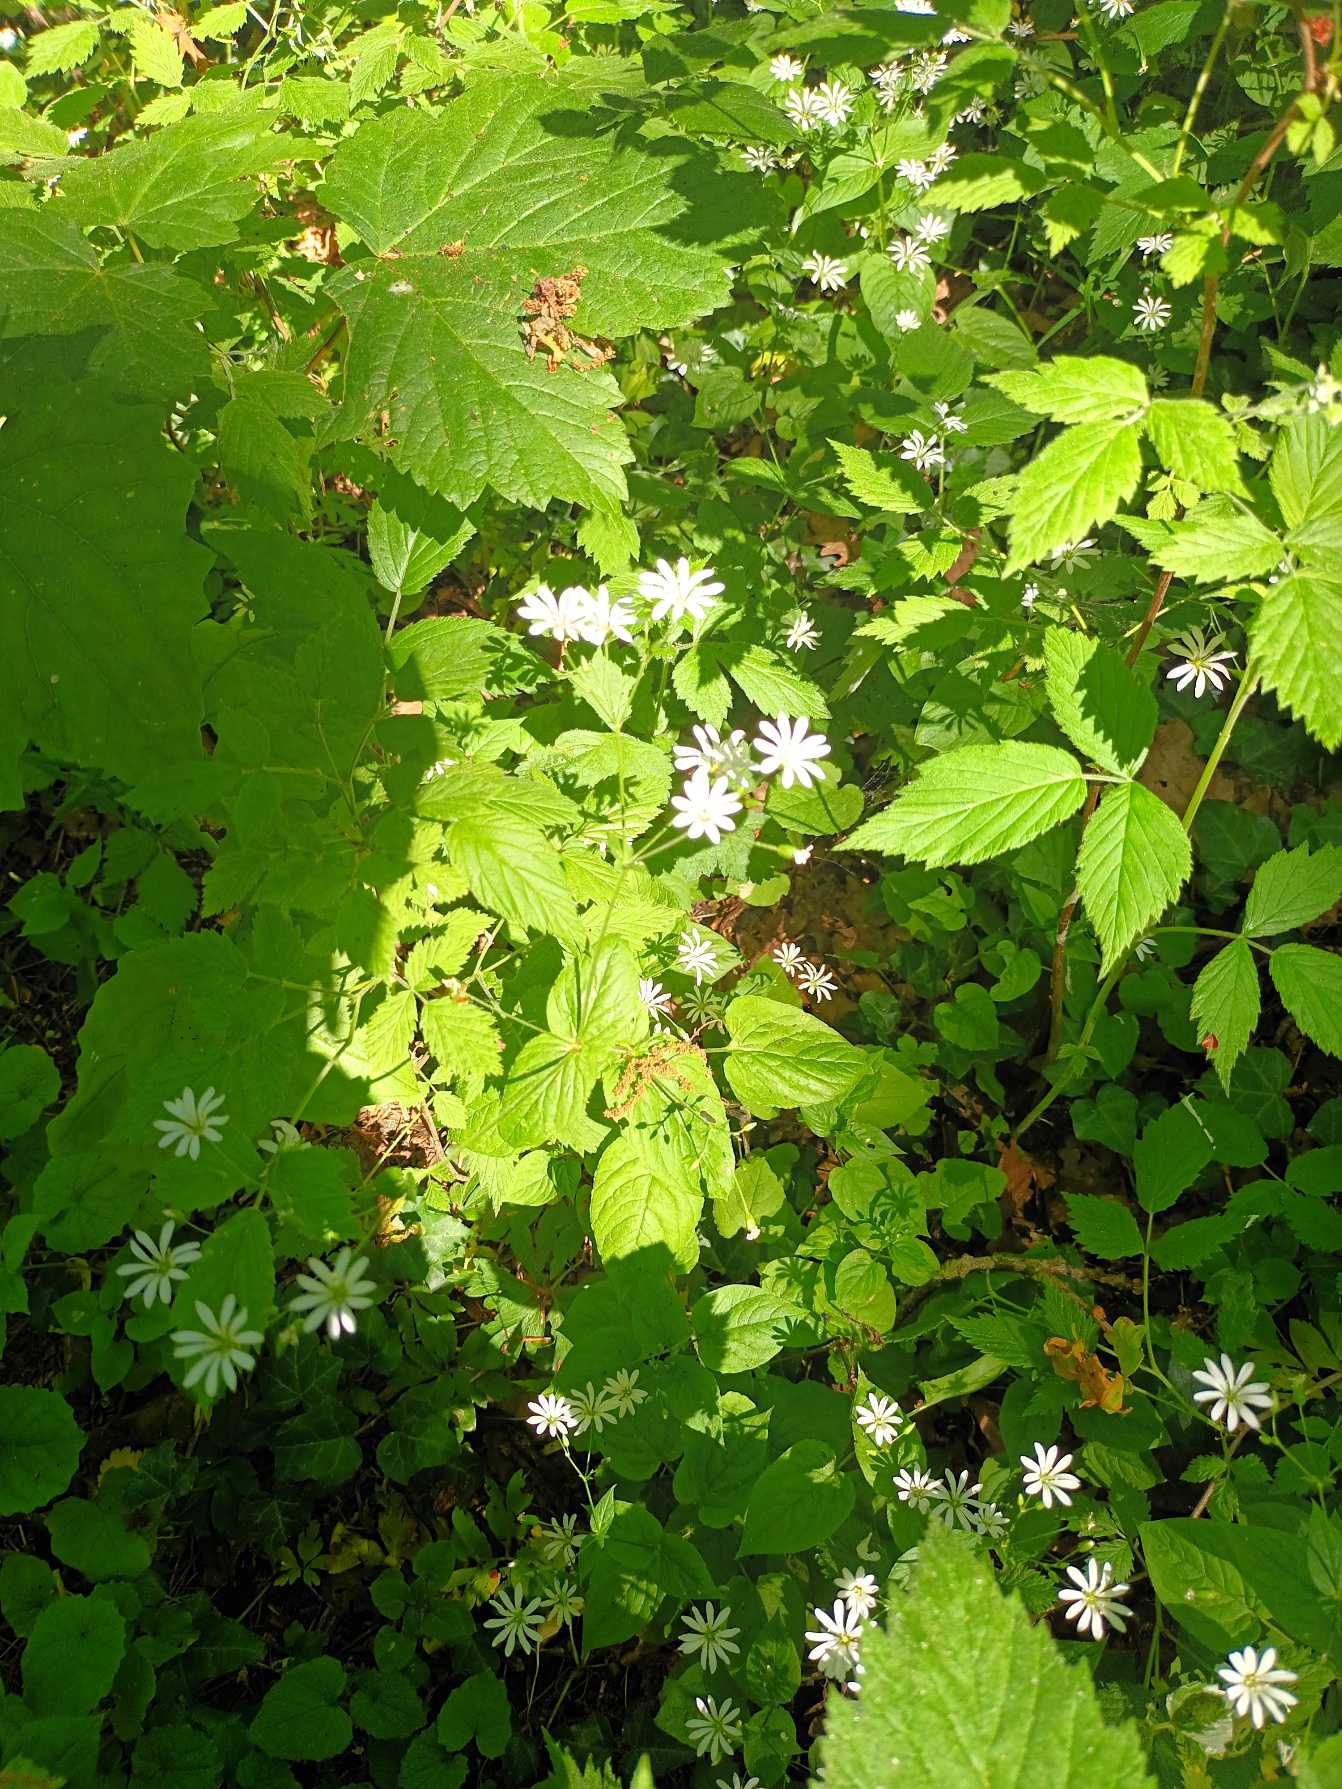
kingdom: Plantae
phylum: Tracheophyta
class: Magnoliopsida
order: Caryophyllales
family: Caryophyllaceae
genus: Stellaria
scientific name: Stellaria glochidisperma
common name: Sydlig lund-fladstjerne
